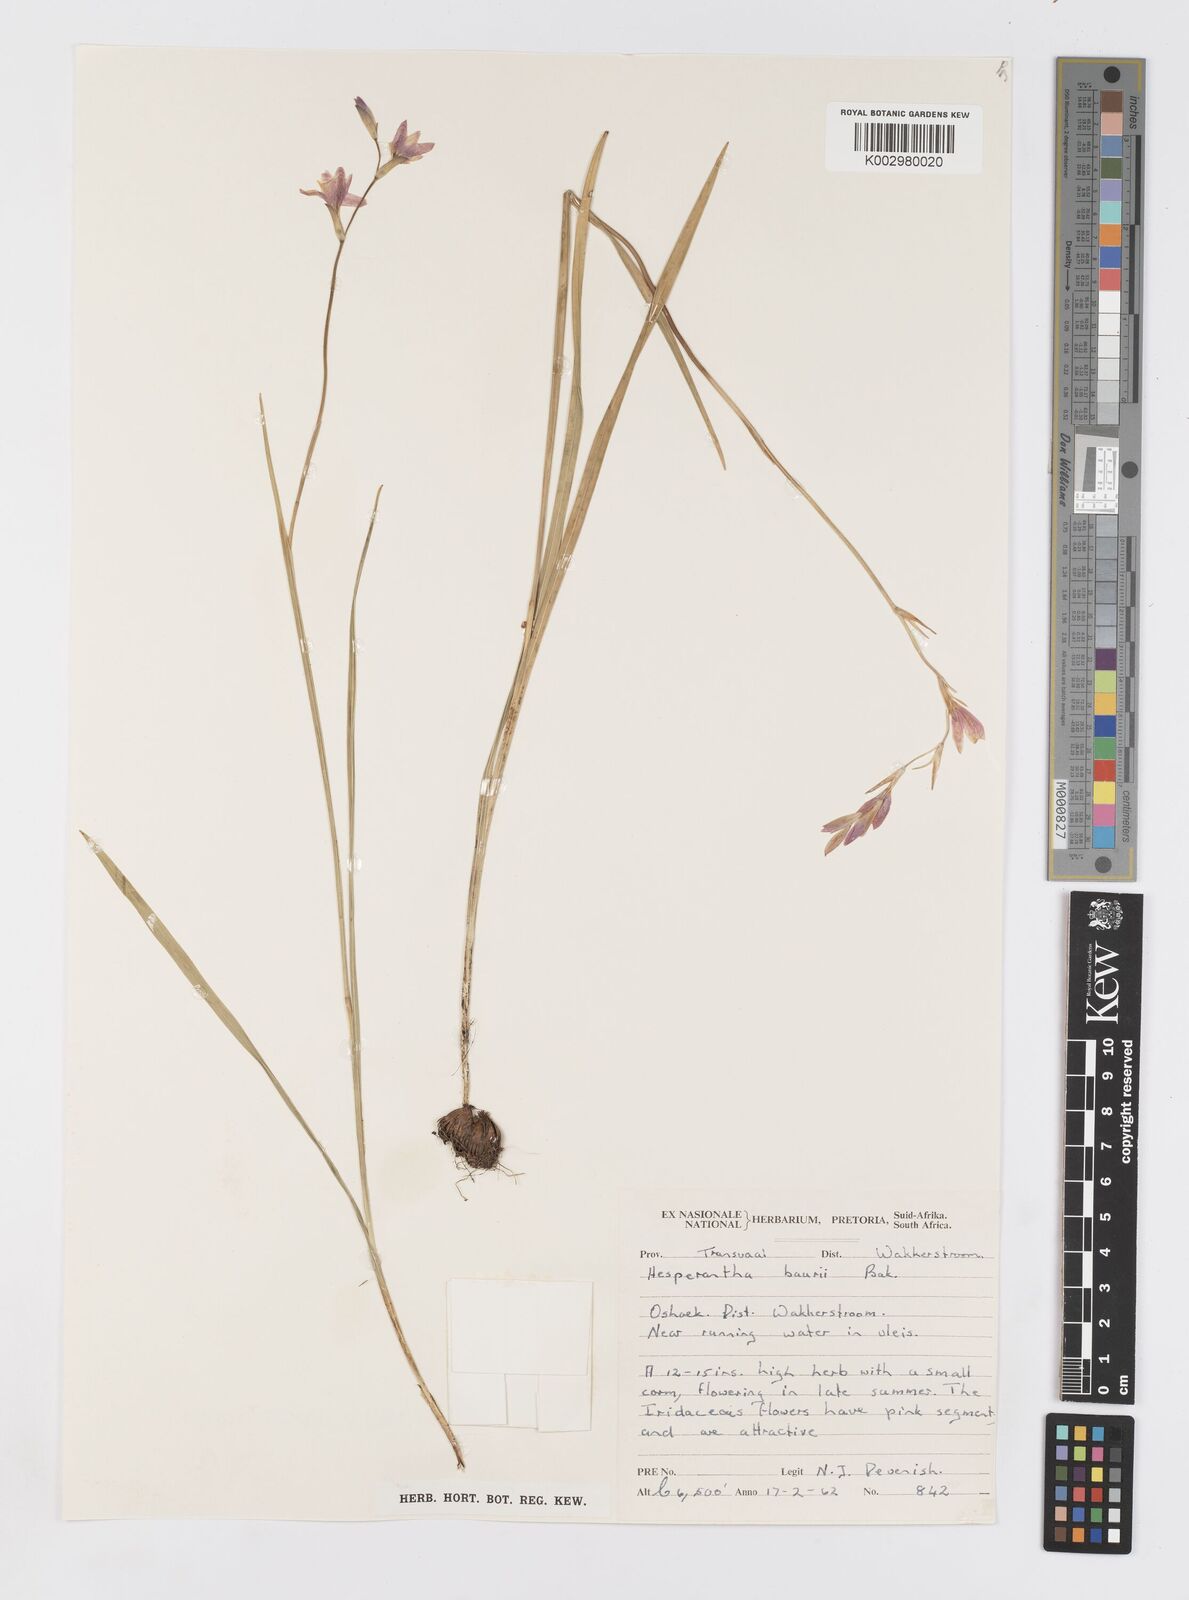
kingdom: Plantae
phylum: Tracheophyta
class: Liliopsida
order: Asparagales
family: Iridaceae
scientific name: Iridaceae
